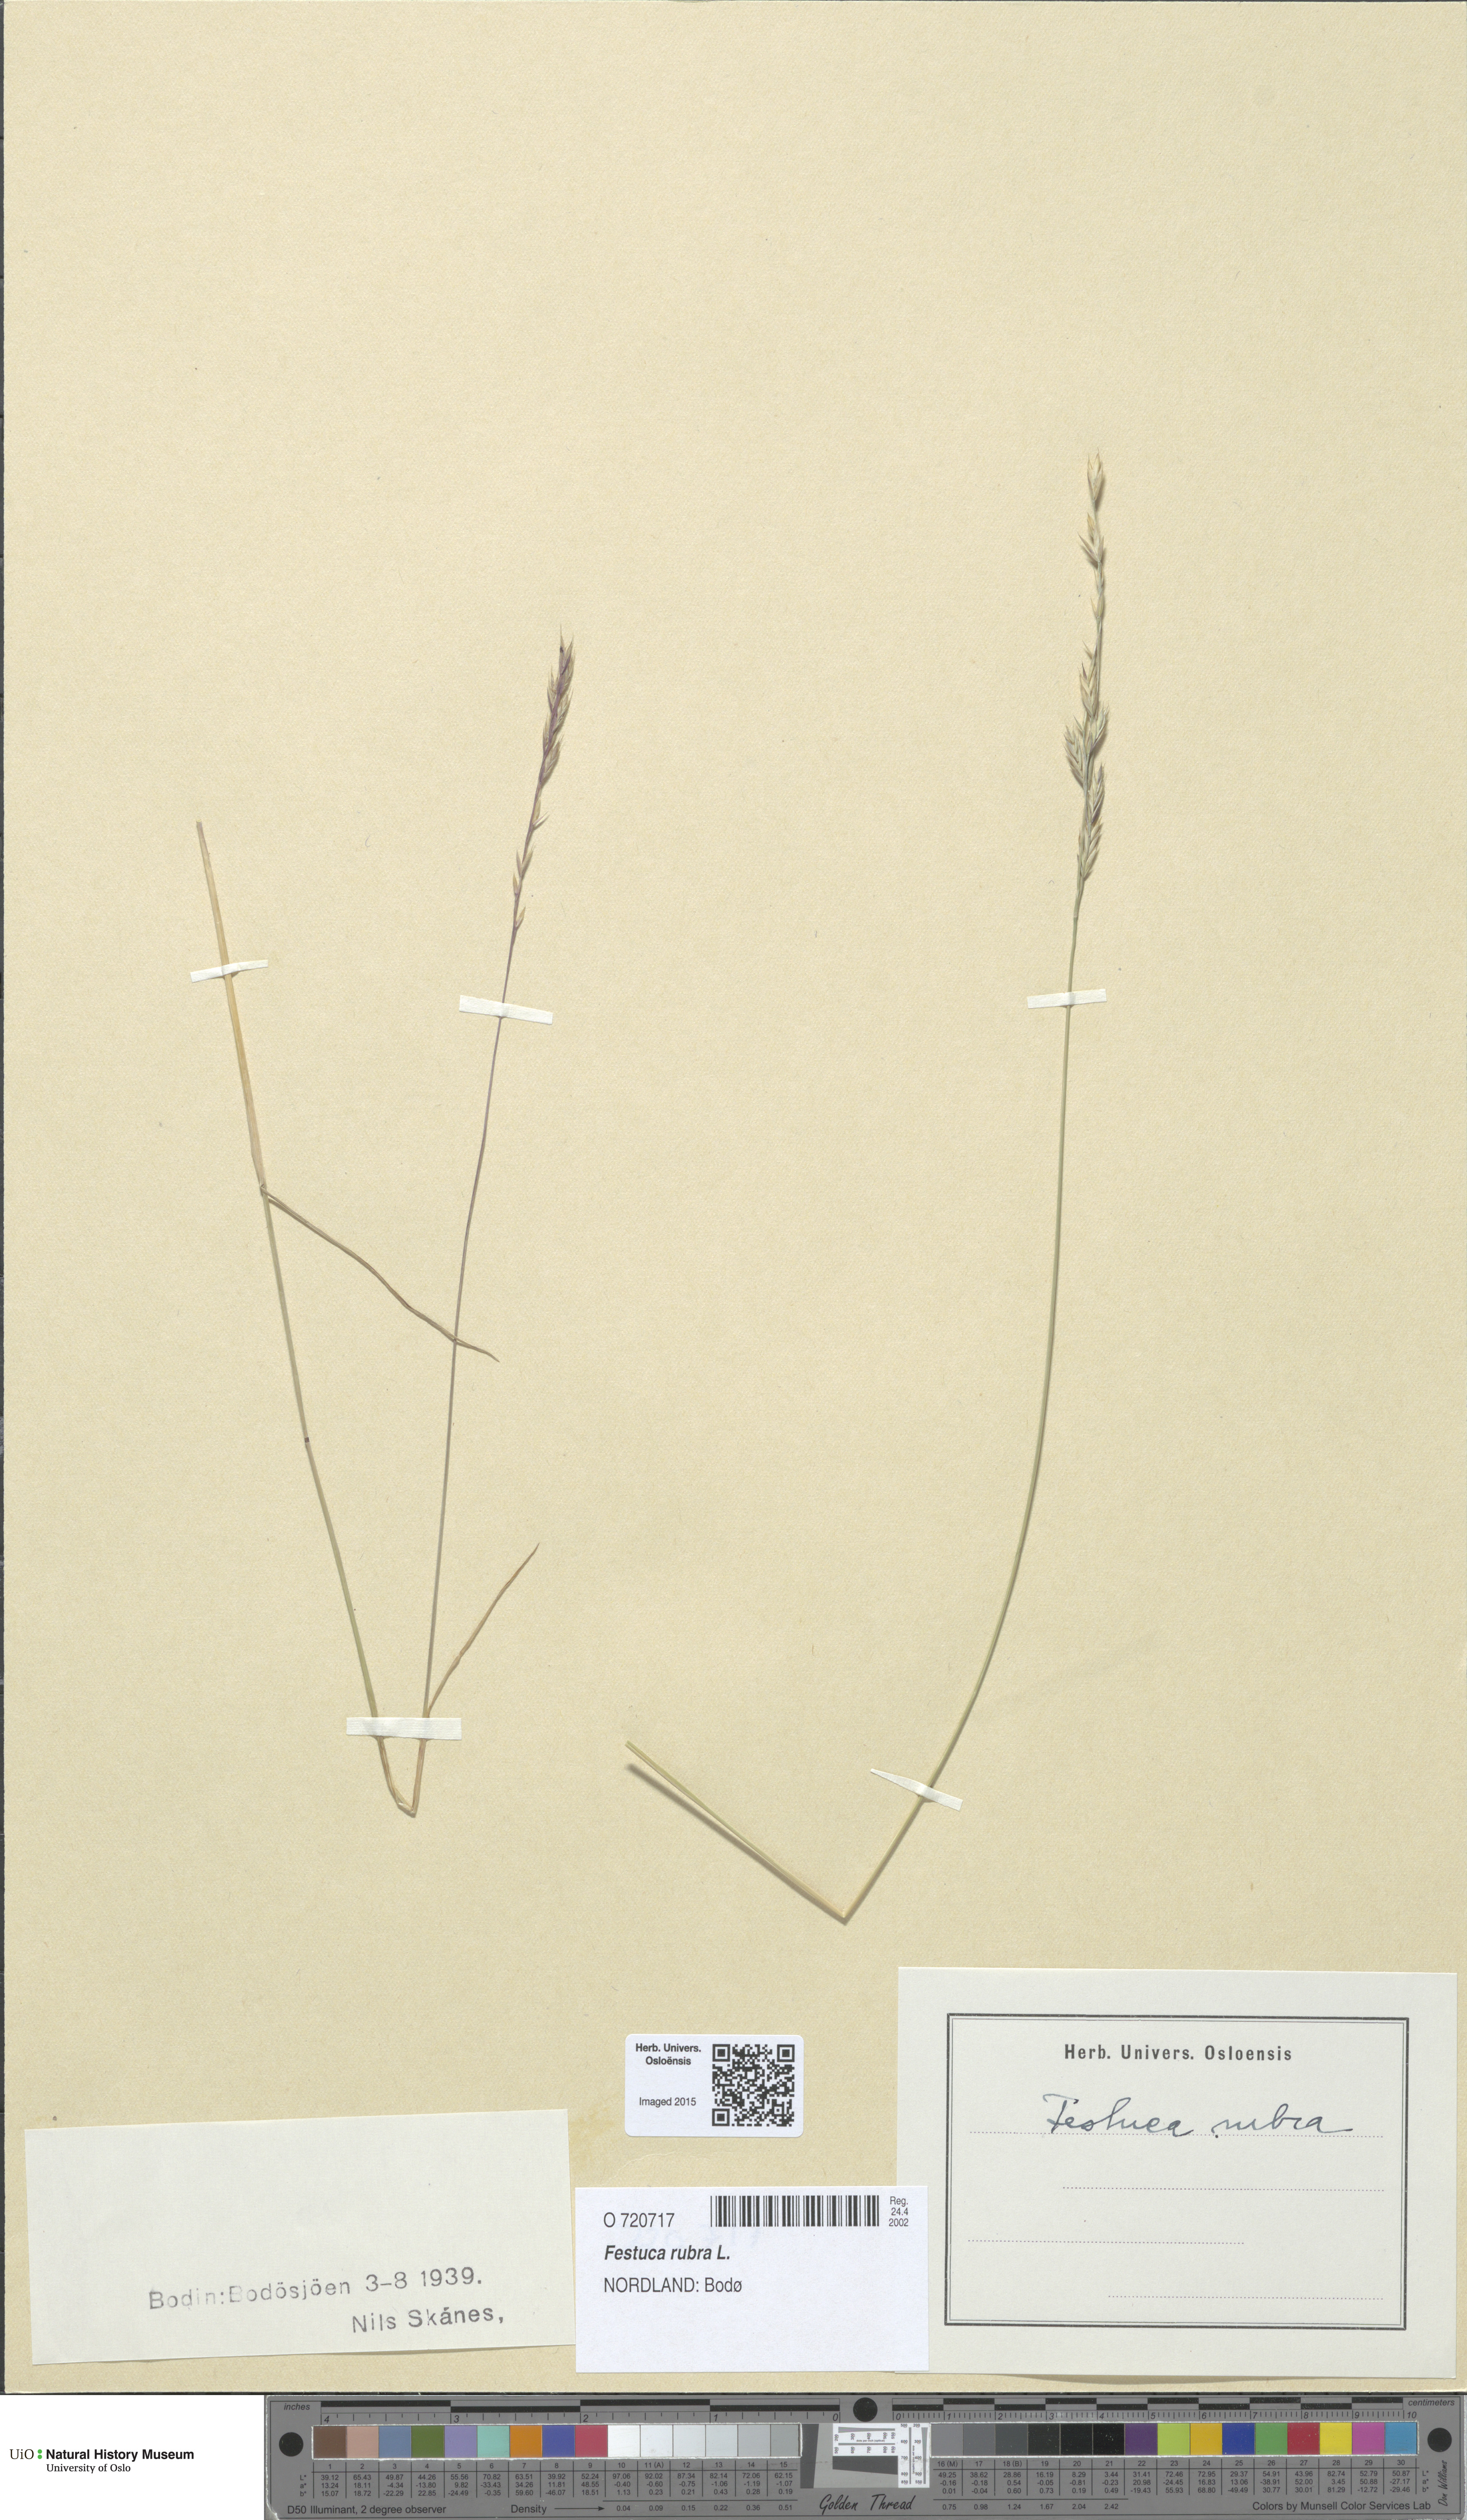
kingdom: Plantae
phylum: Tracheophyta
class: Liliopsida
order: Poales
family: Poaceae
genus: Festuca
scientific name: Festuca rubra
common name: Red fescue
